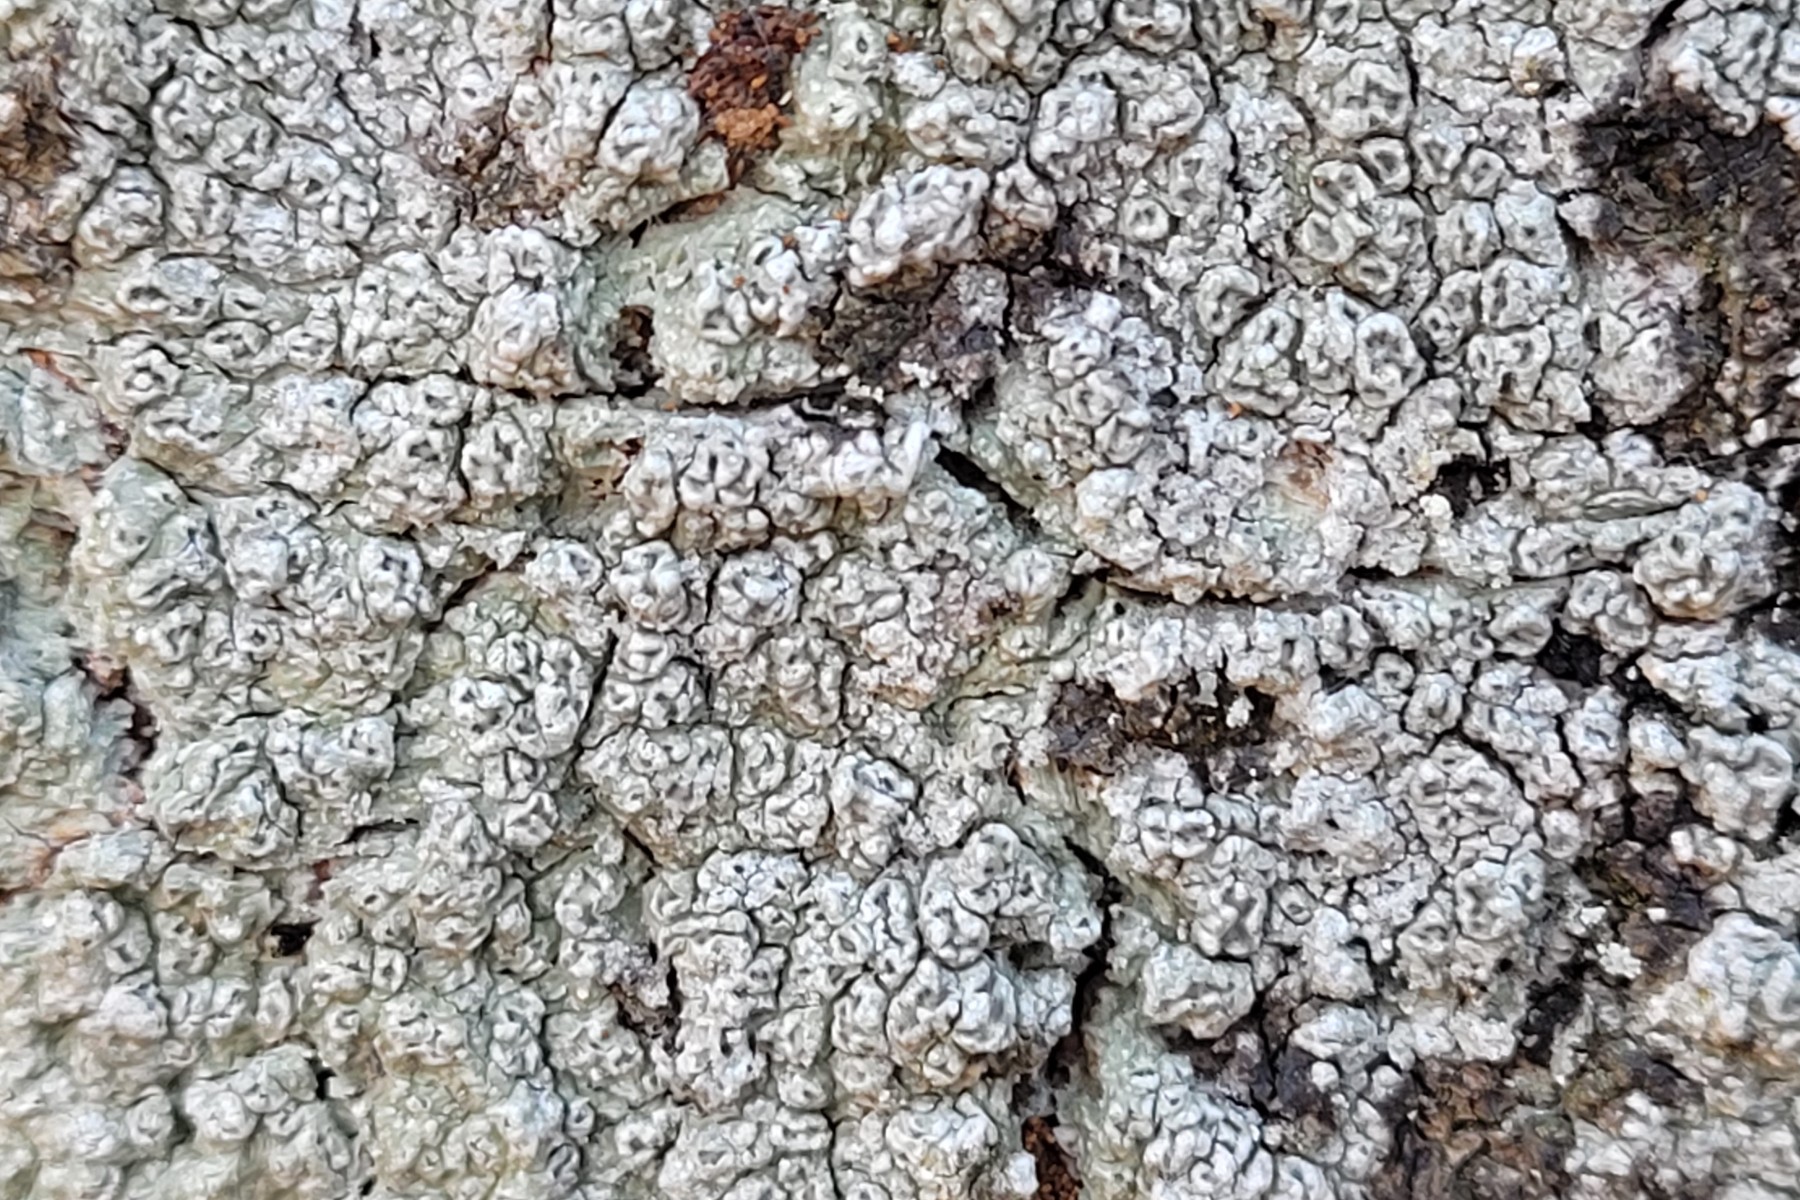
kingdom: Fungi
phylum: Ascomycota
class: Lecanoromycetes
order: Pertusariales
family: Pertusariaceae
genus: Pertusaria
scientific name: Pertusaria hymenea
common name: åben prikvortelav
